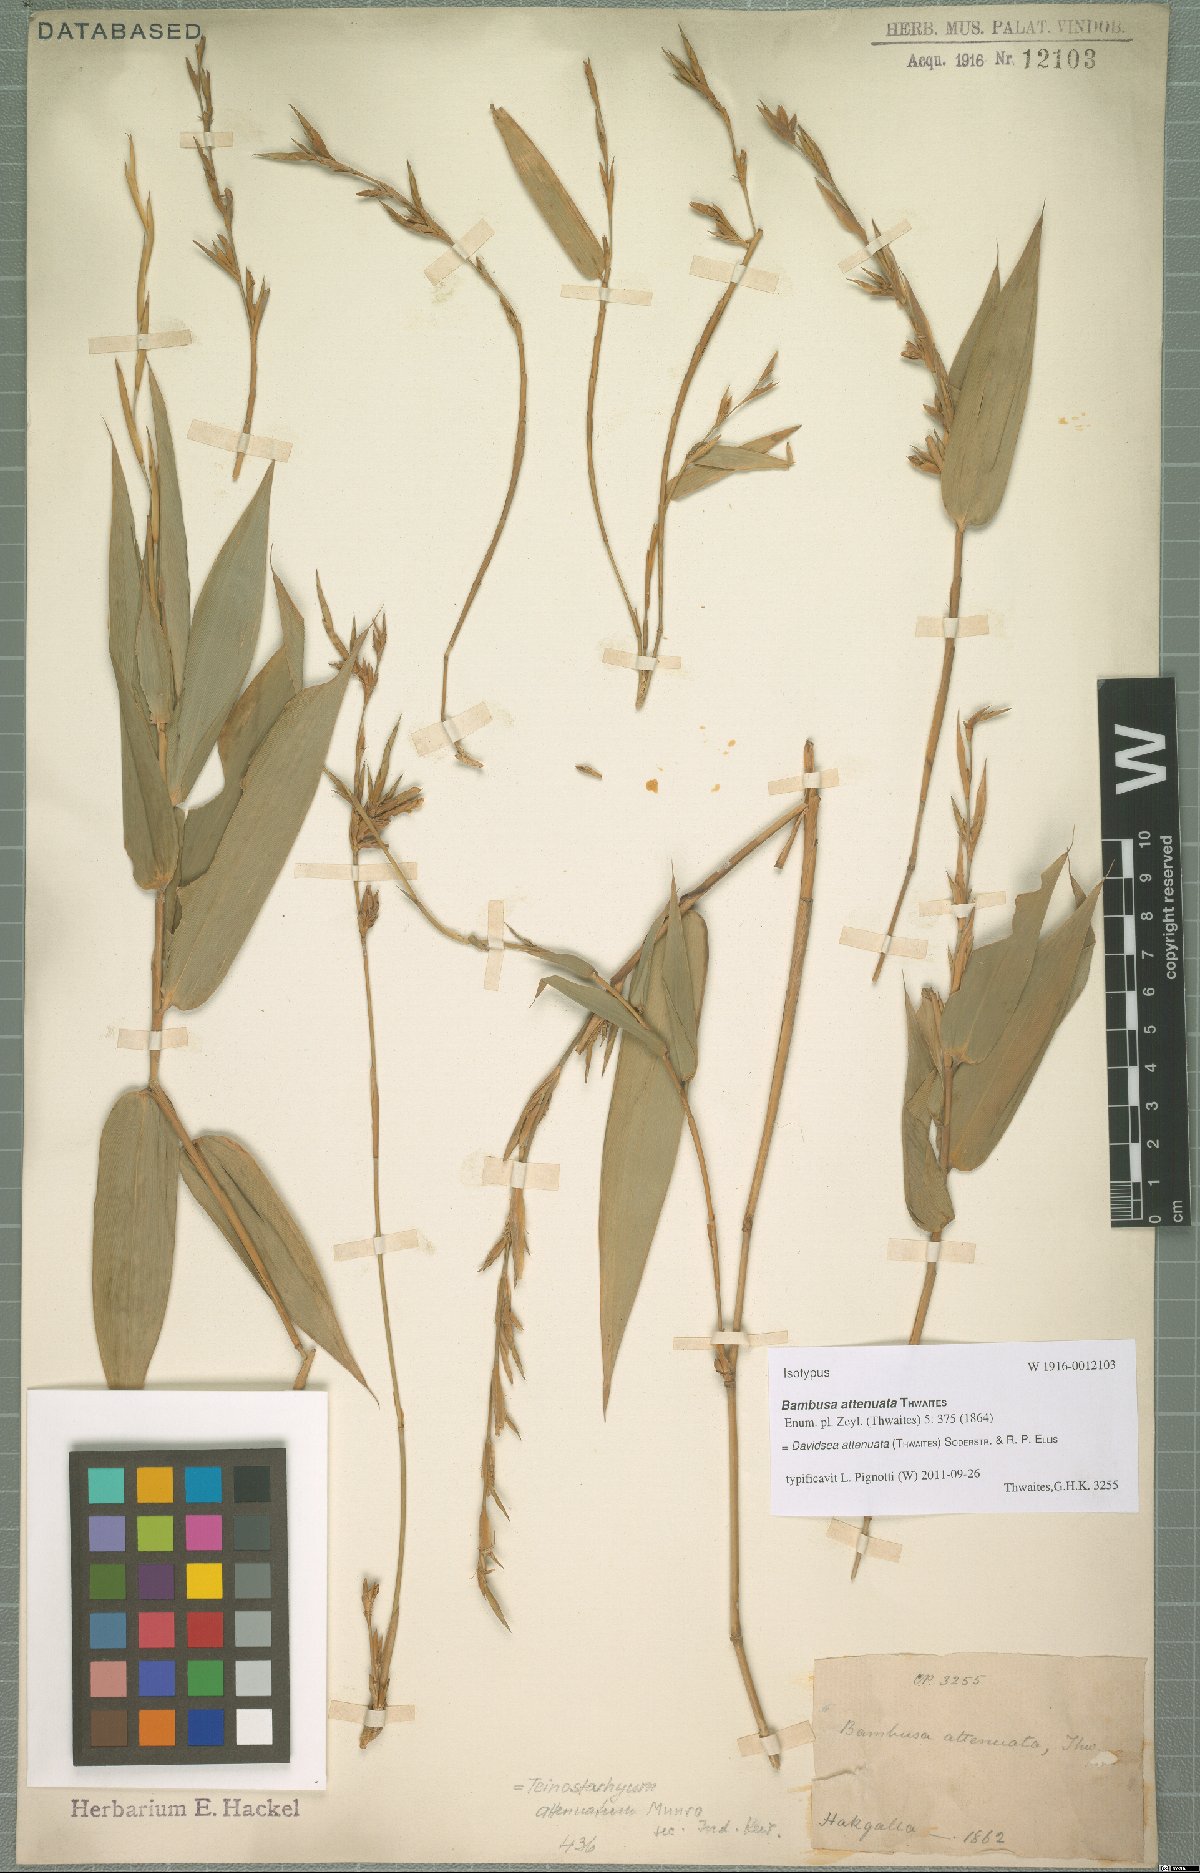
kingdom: Plantae
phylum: Tracheophyta
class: Liliopsida
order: Poales
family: Poaceae
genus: Davidsea
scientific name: Davidsea attenuata
